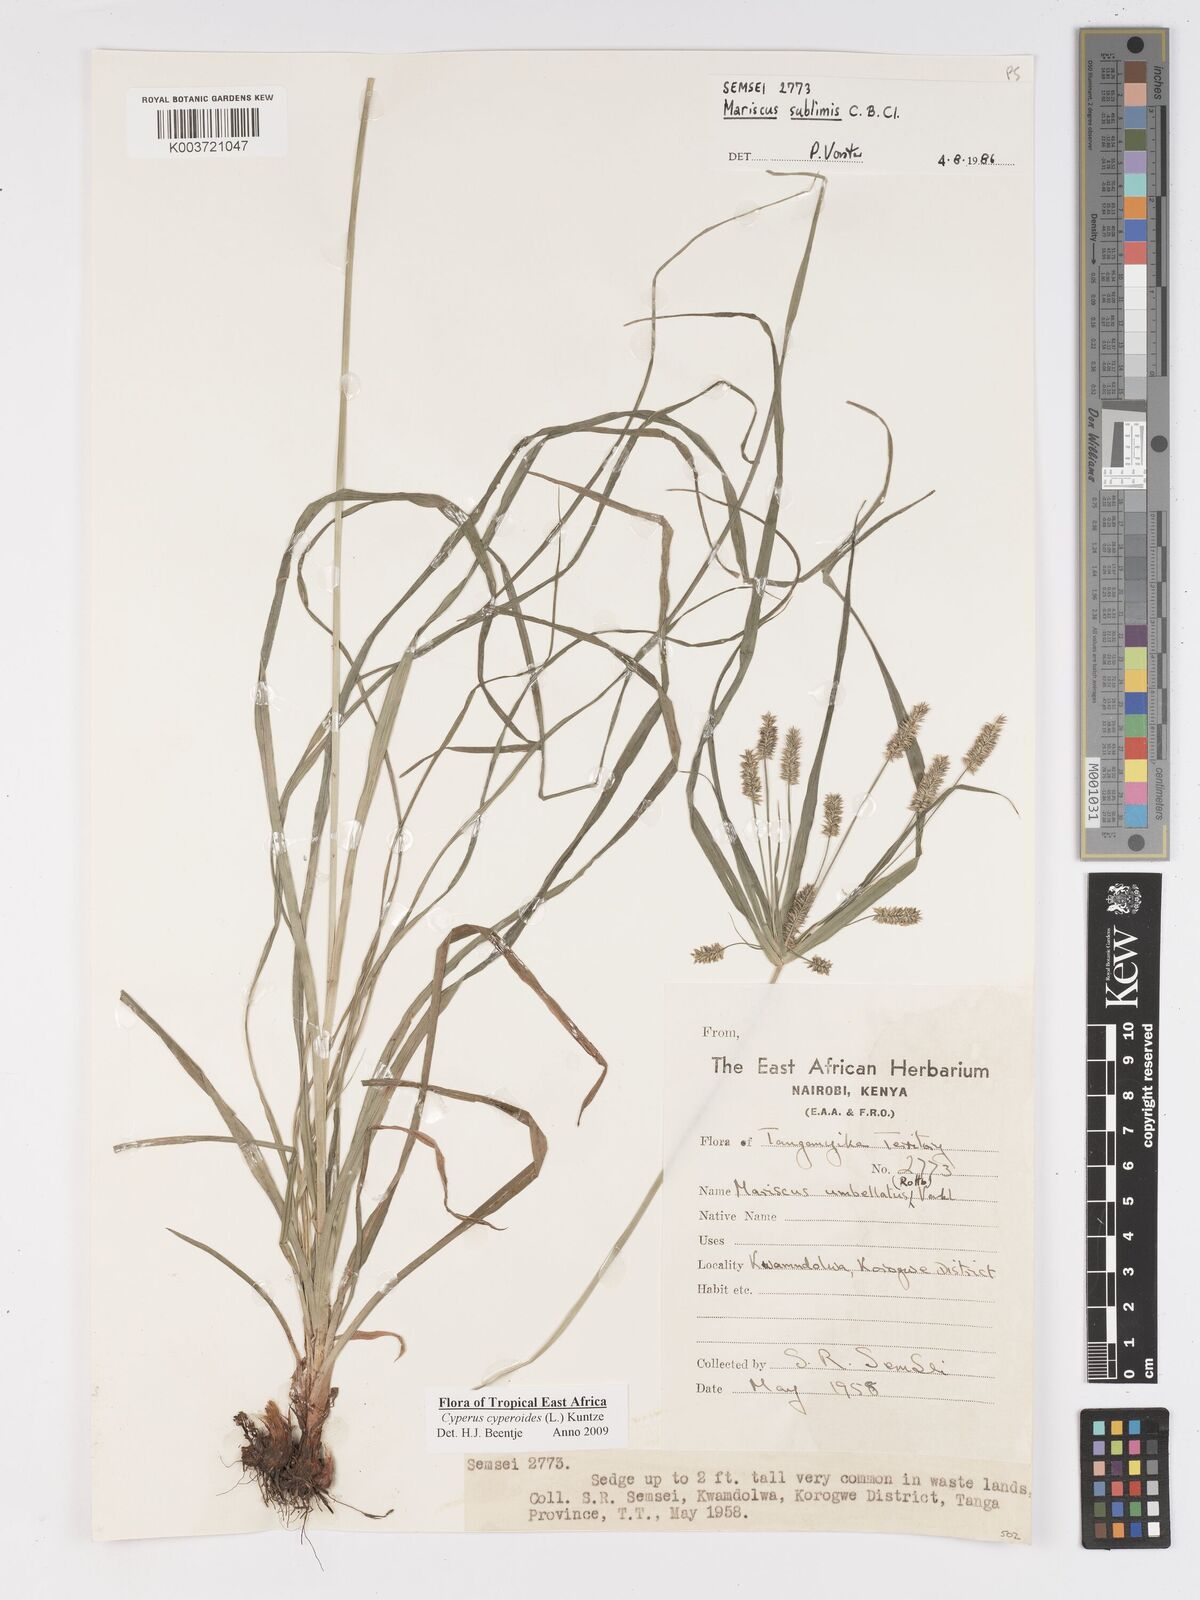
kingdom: Plantae
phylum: Tracheophyta
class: Liliopsida
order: Poales
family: Cyperaceae
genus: Cyperus
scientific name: Cyperus cyperoides
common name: Pacific island flat sedge
